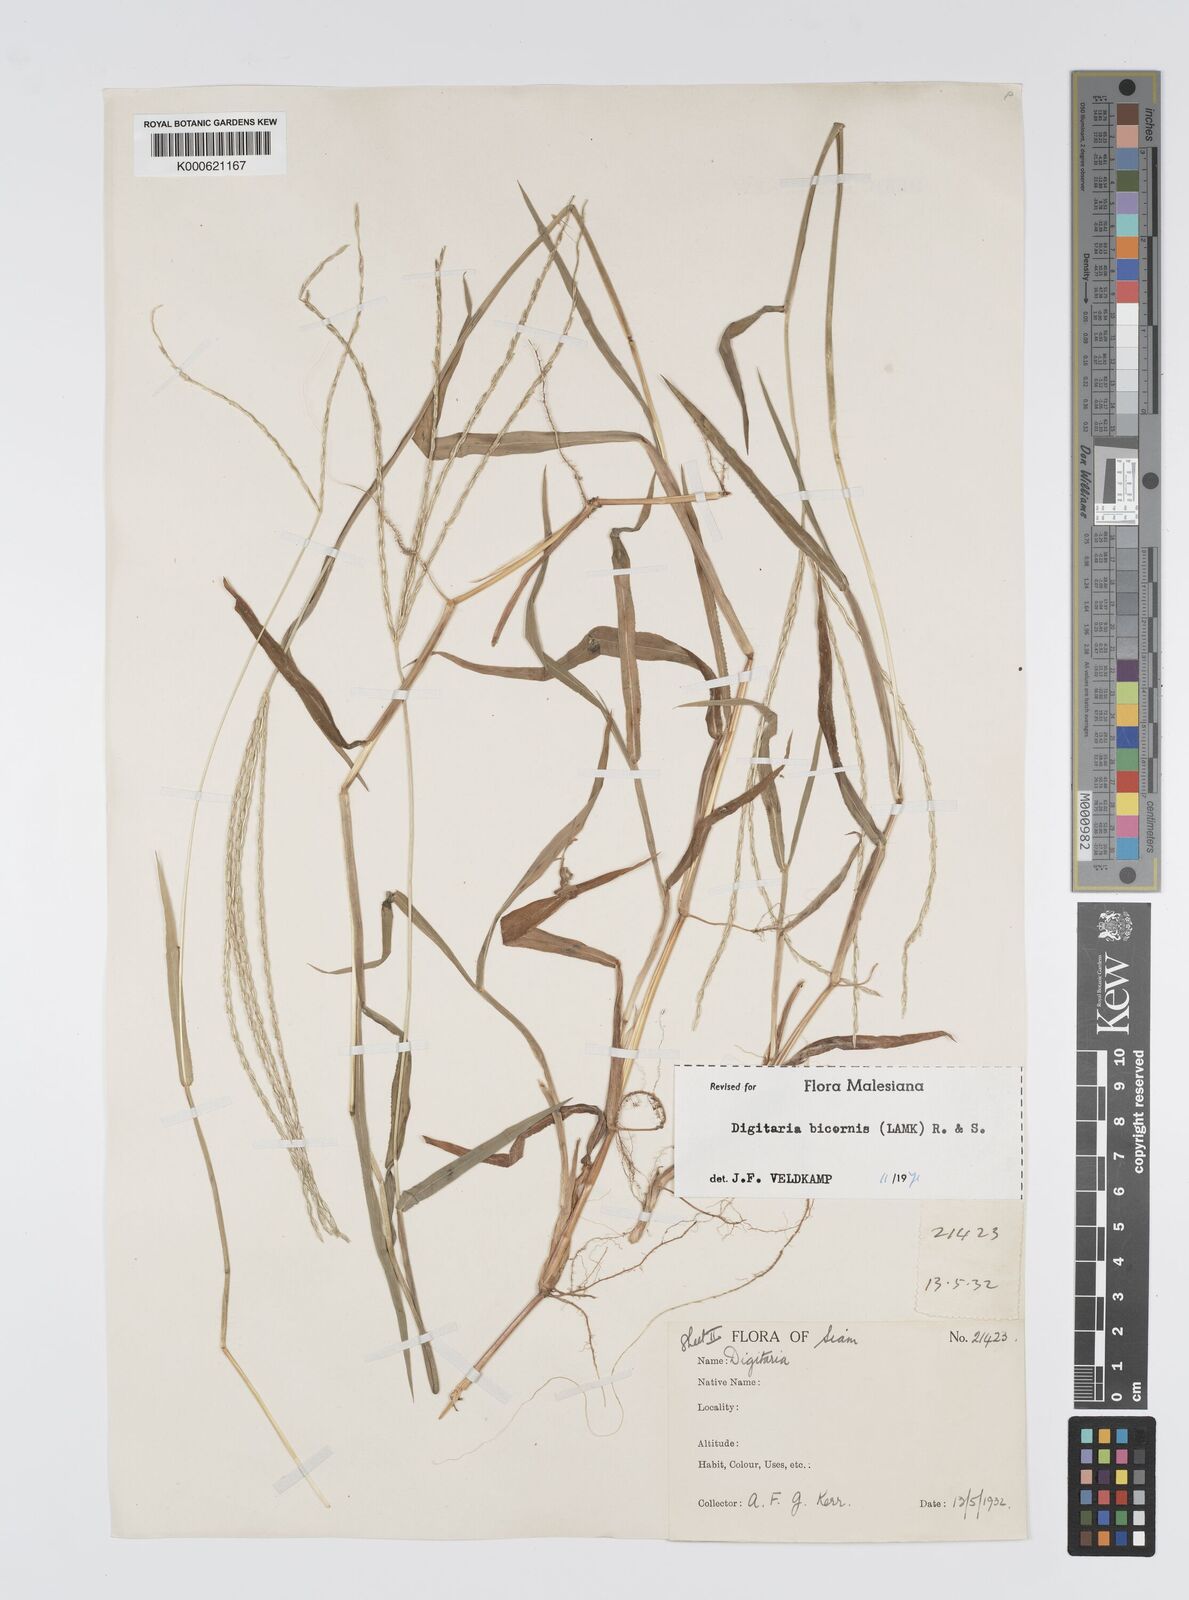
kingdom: Plantae
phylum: Tracheophyta
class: Liliopsida
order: Poales
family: Poaceae
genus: Digitaria
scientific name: Digitaria bicornis
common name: Asian crabgrass
